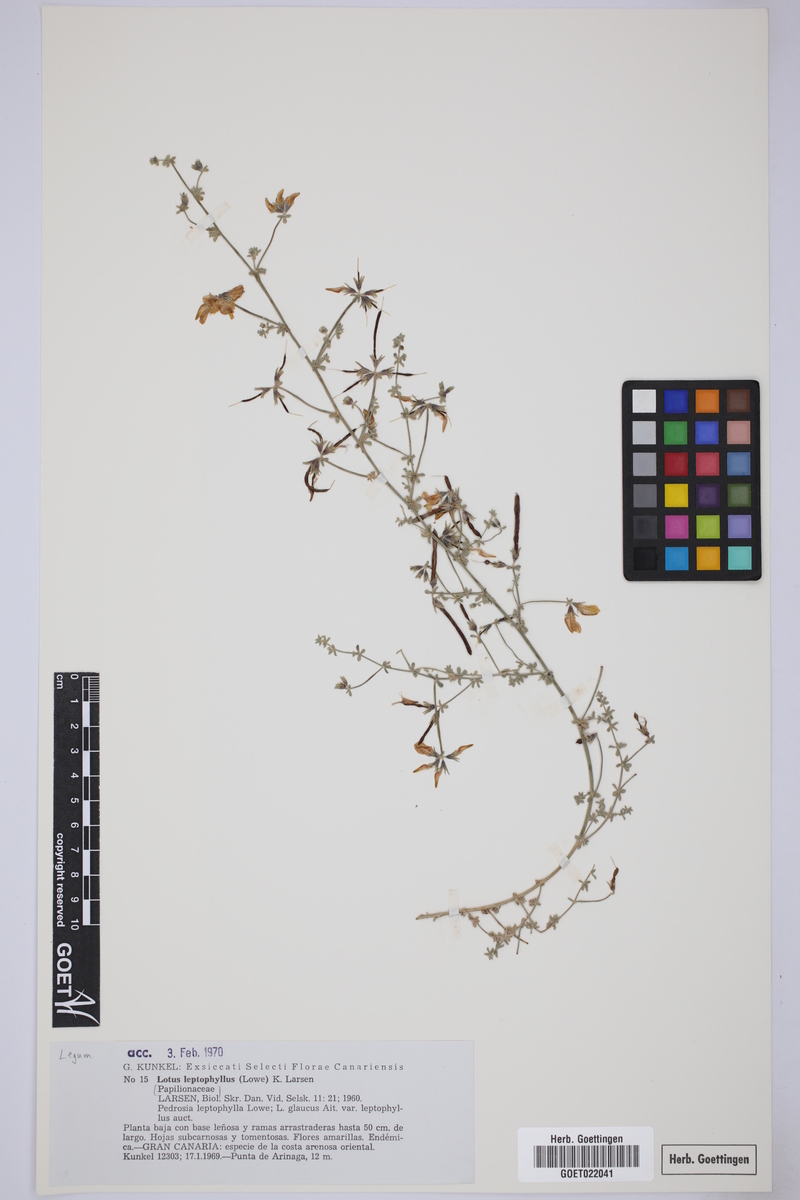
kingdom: Plantae
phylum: Tracheophyta
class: Magnoliopsida
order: Fabales
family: Fabaceae
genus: Lotus
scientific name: Lotus tenellus
